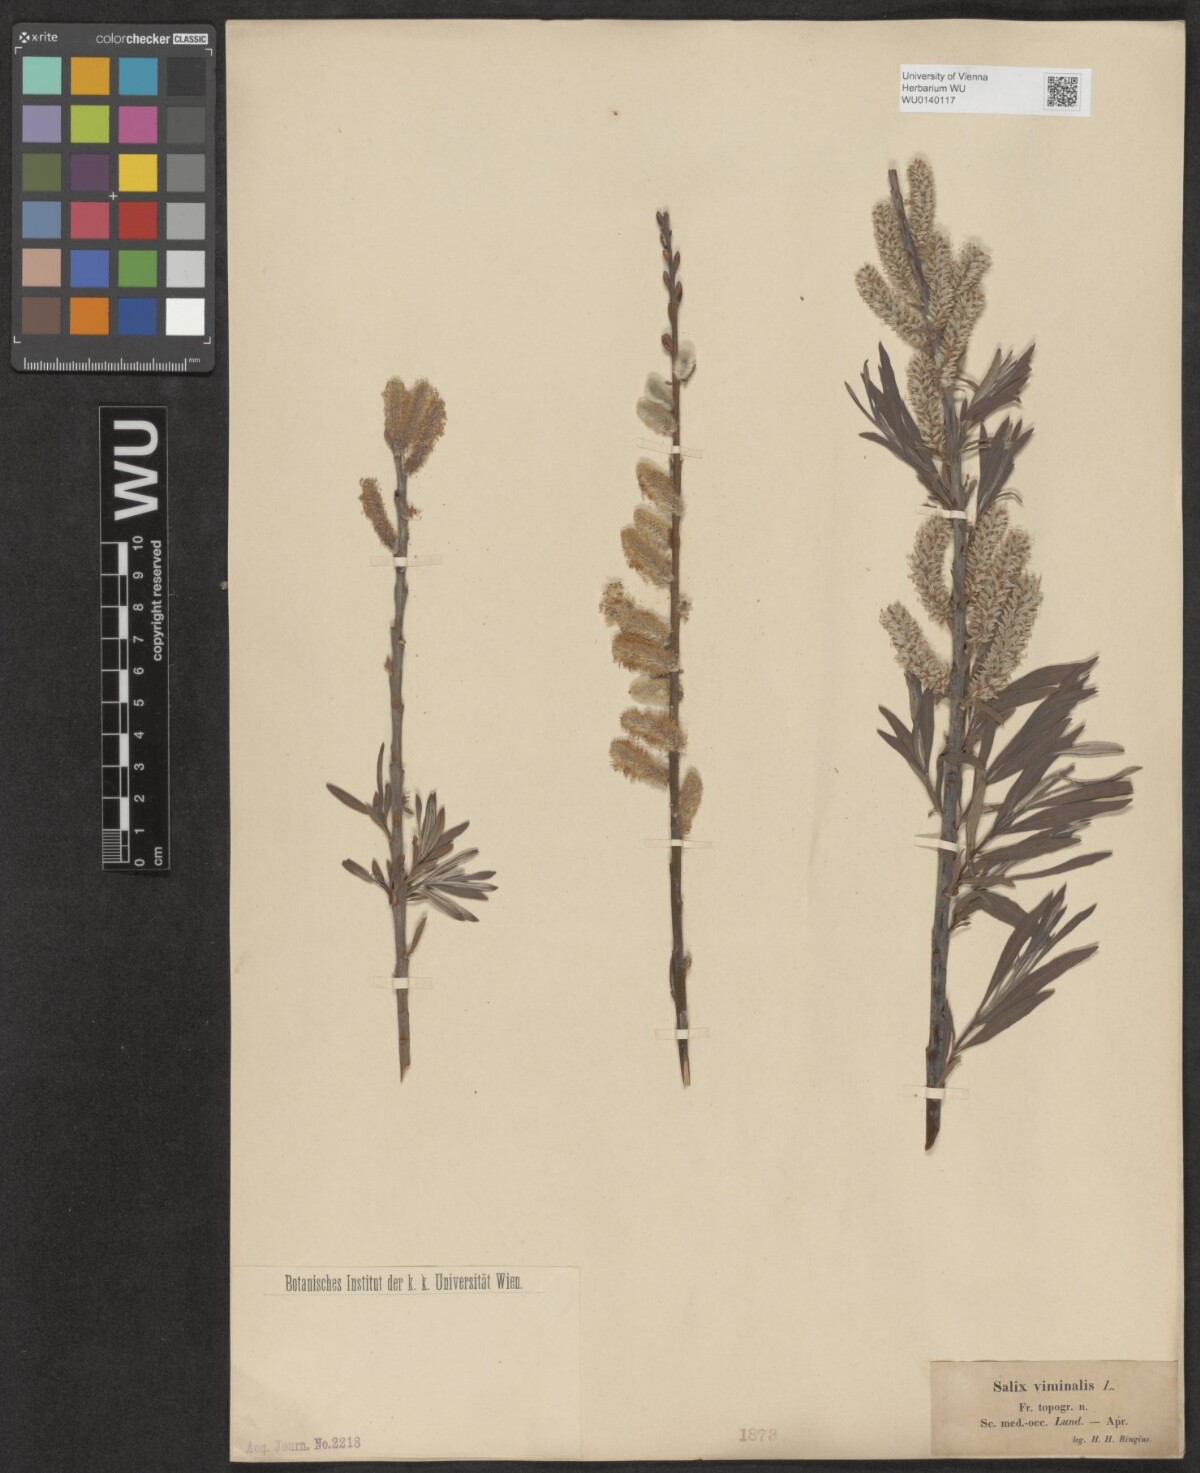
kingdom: Plantae
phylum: Tracheophyta
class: Magnoliopsida
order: Malpighiales
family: Salicaceae
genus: Salix
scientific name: Salix viminalis
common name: Osier
